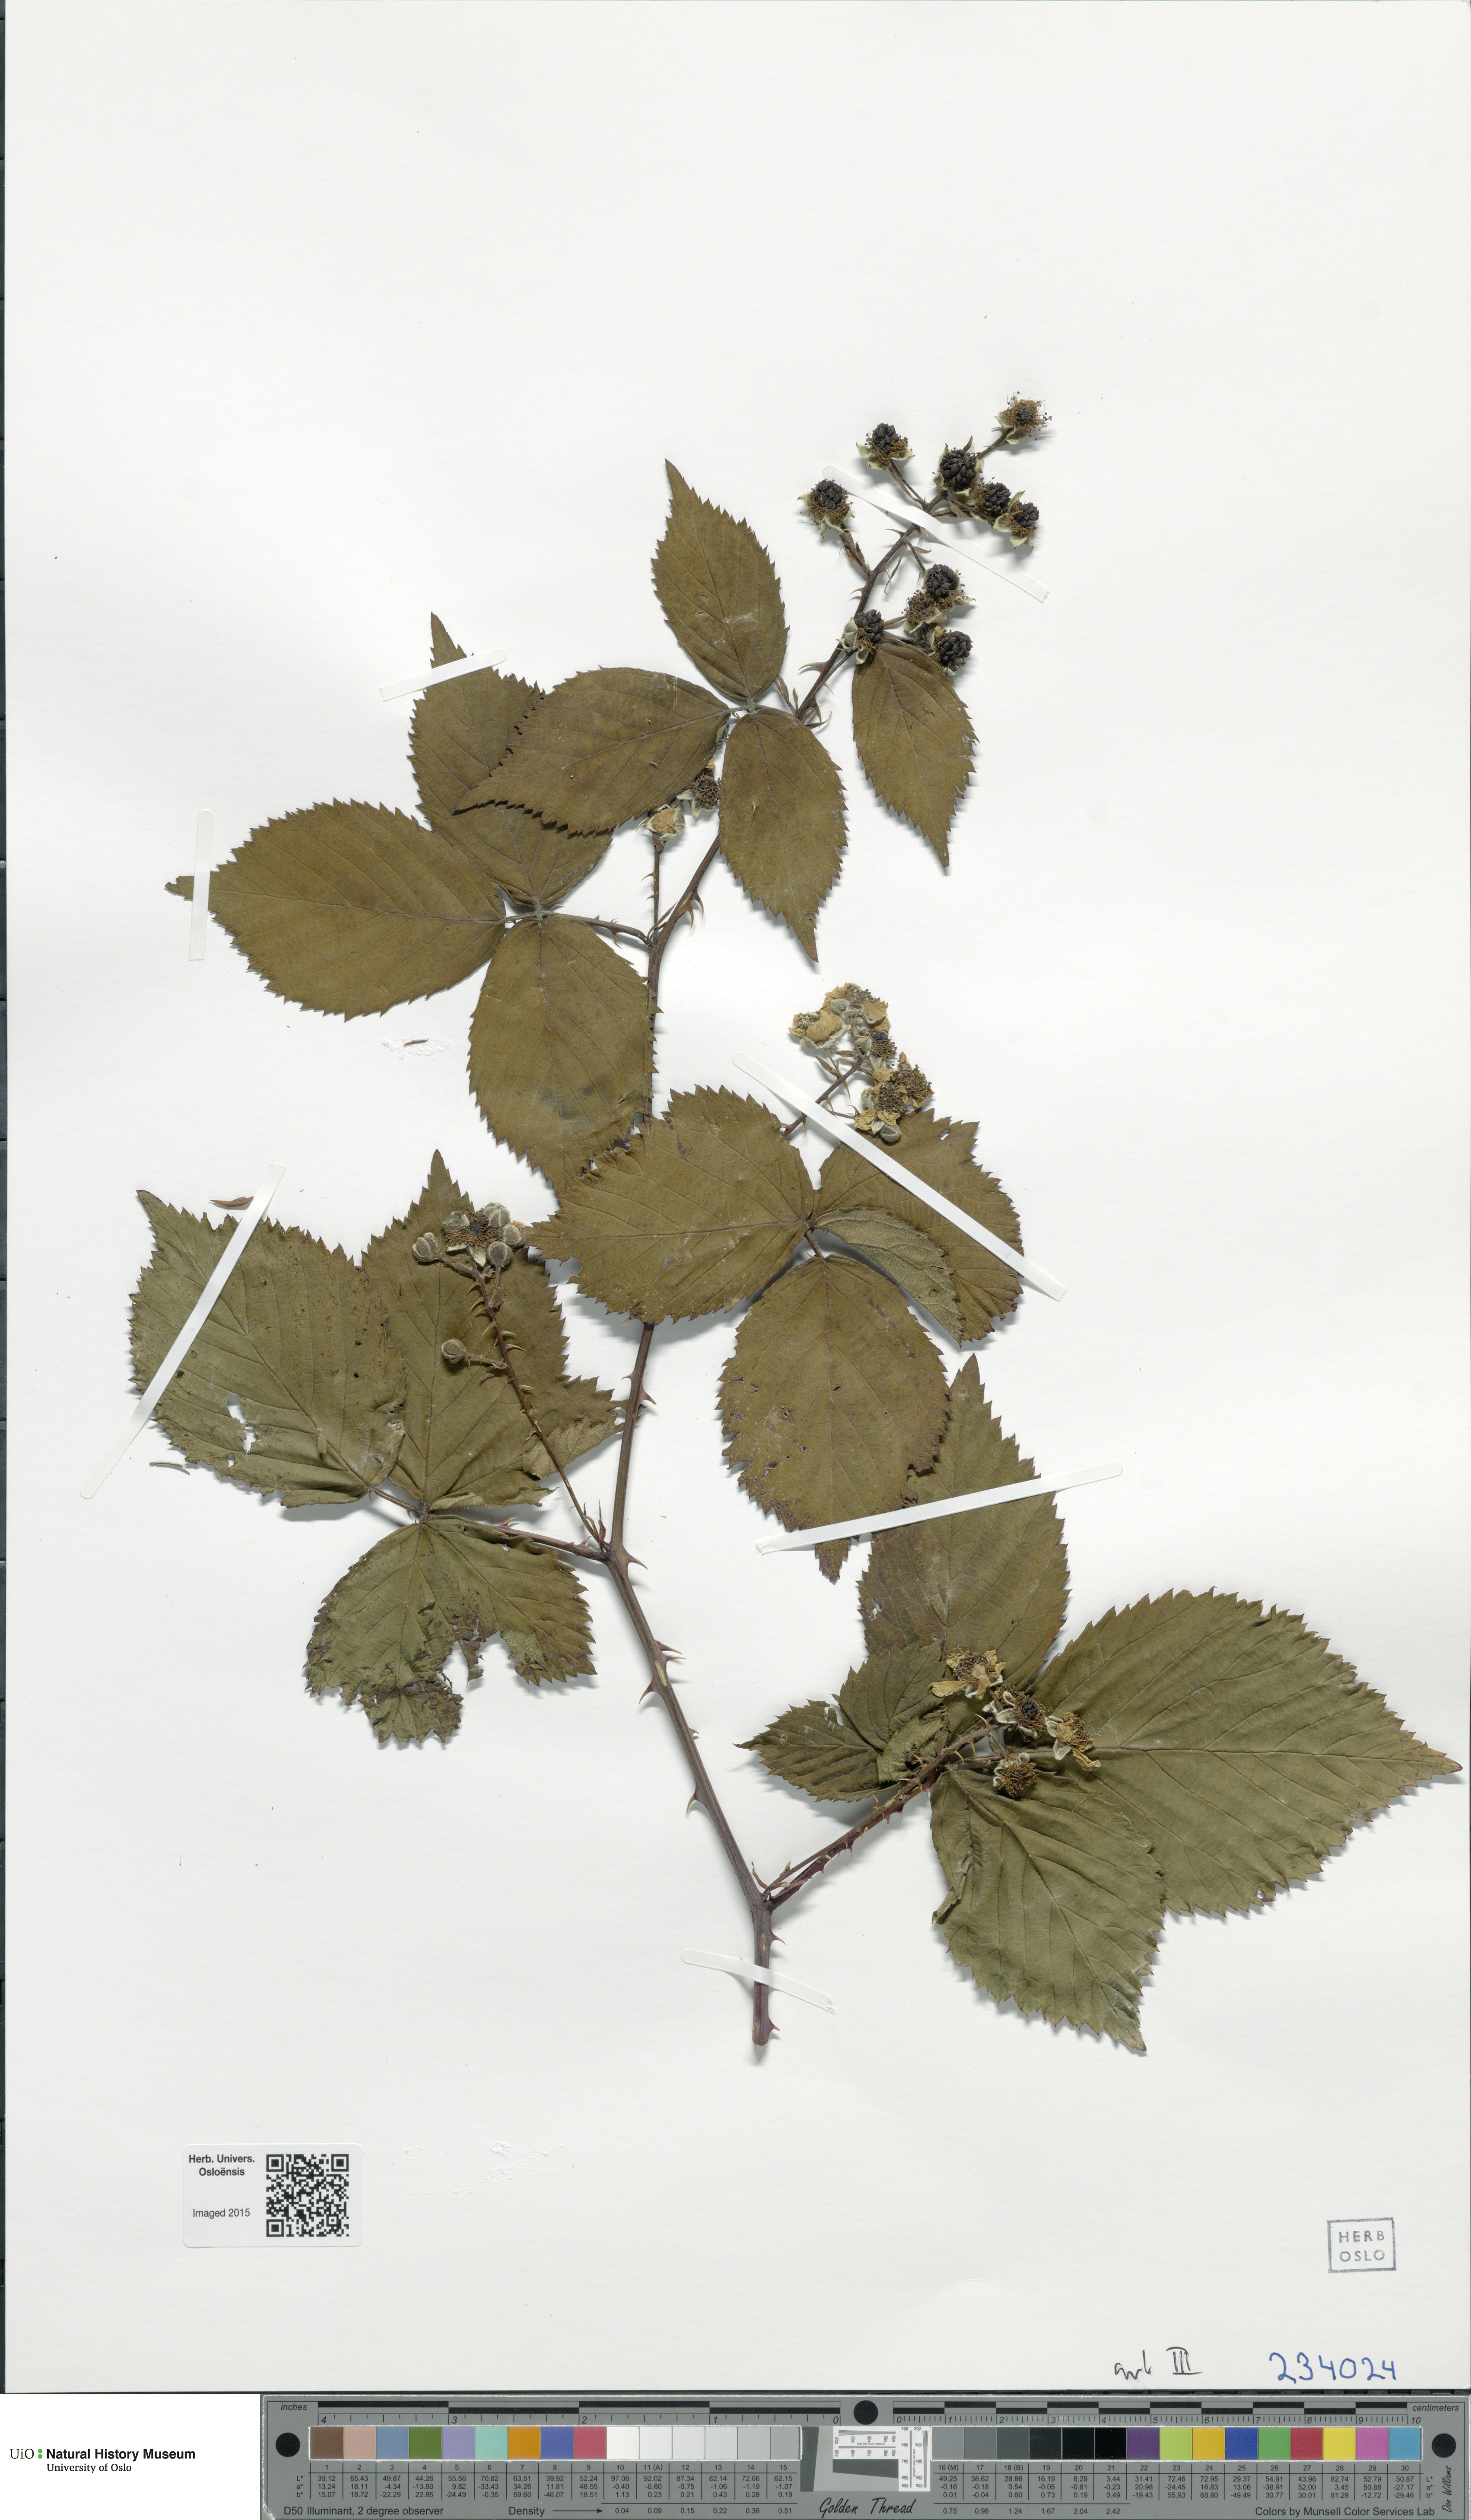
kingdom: Plantae
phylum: Tracheophyta
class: Magnoliopsida
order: Rosales
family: Rosaceae
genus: Rubus
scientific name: Rubus fruticosus
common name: Blackberry, bramble
